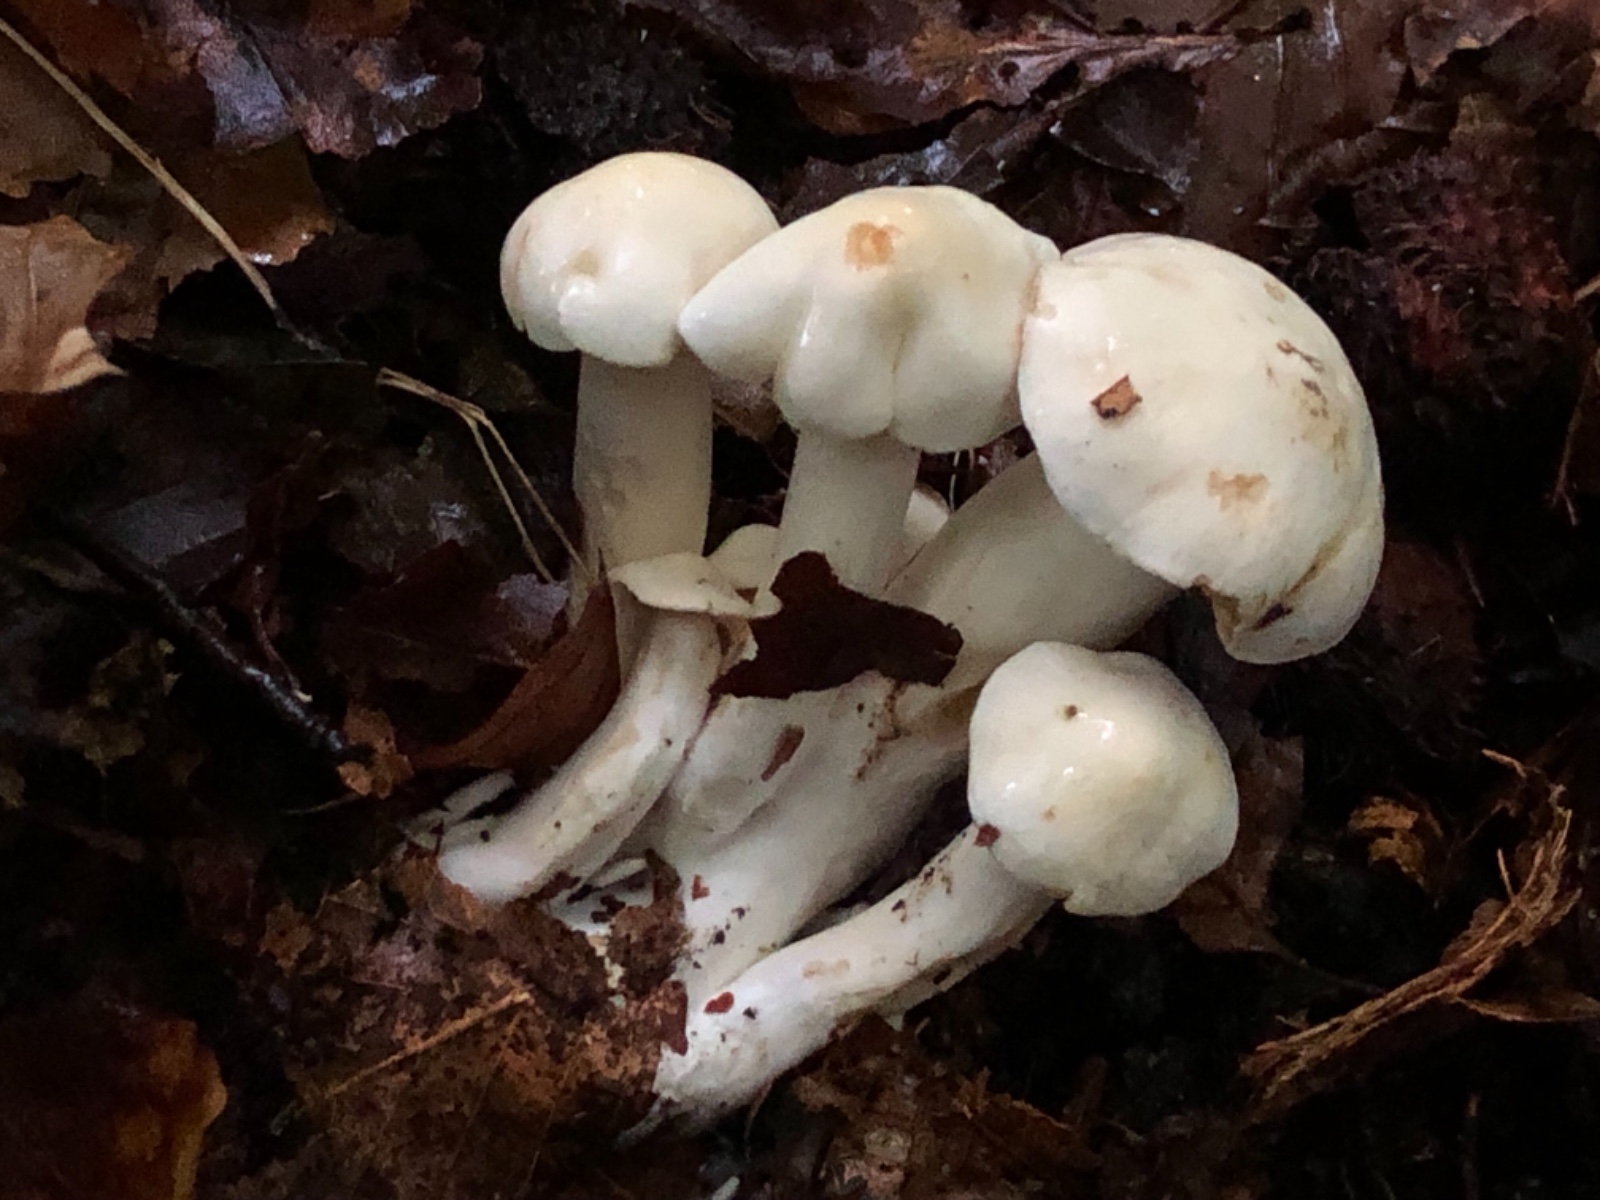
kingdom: Fungi
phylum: Basidiomycota
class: Agaricomycetes
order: Agaricales
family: Tricholomataceae
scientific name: Tricholomataceae
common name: ridderhatfamilien
